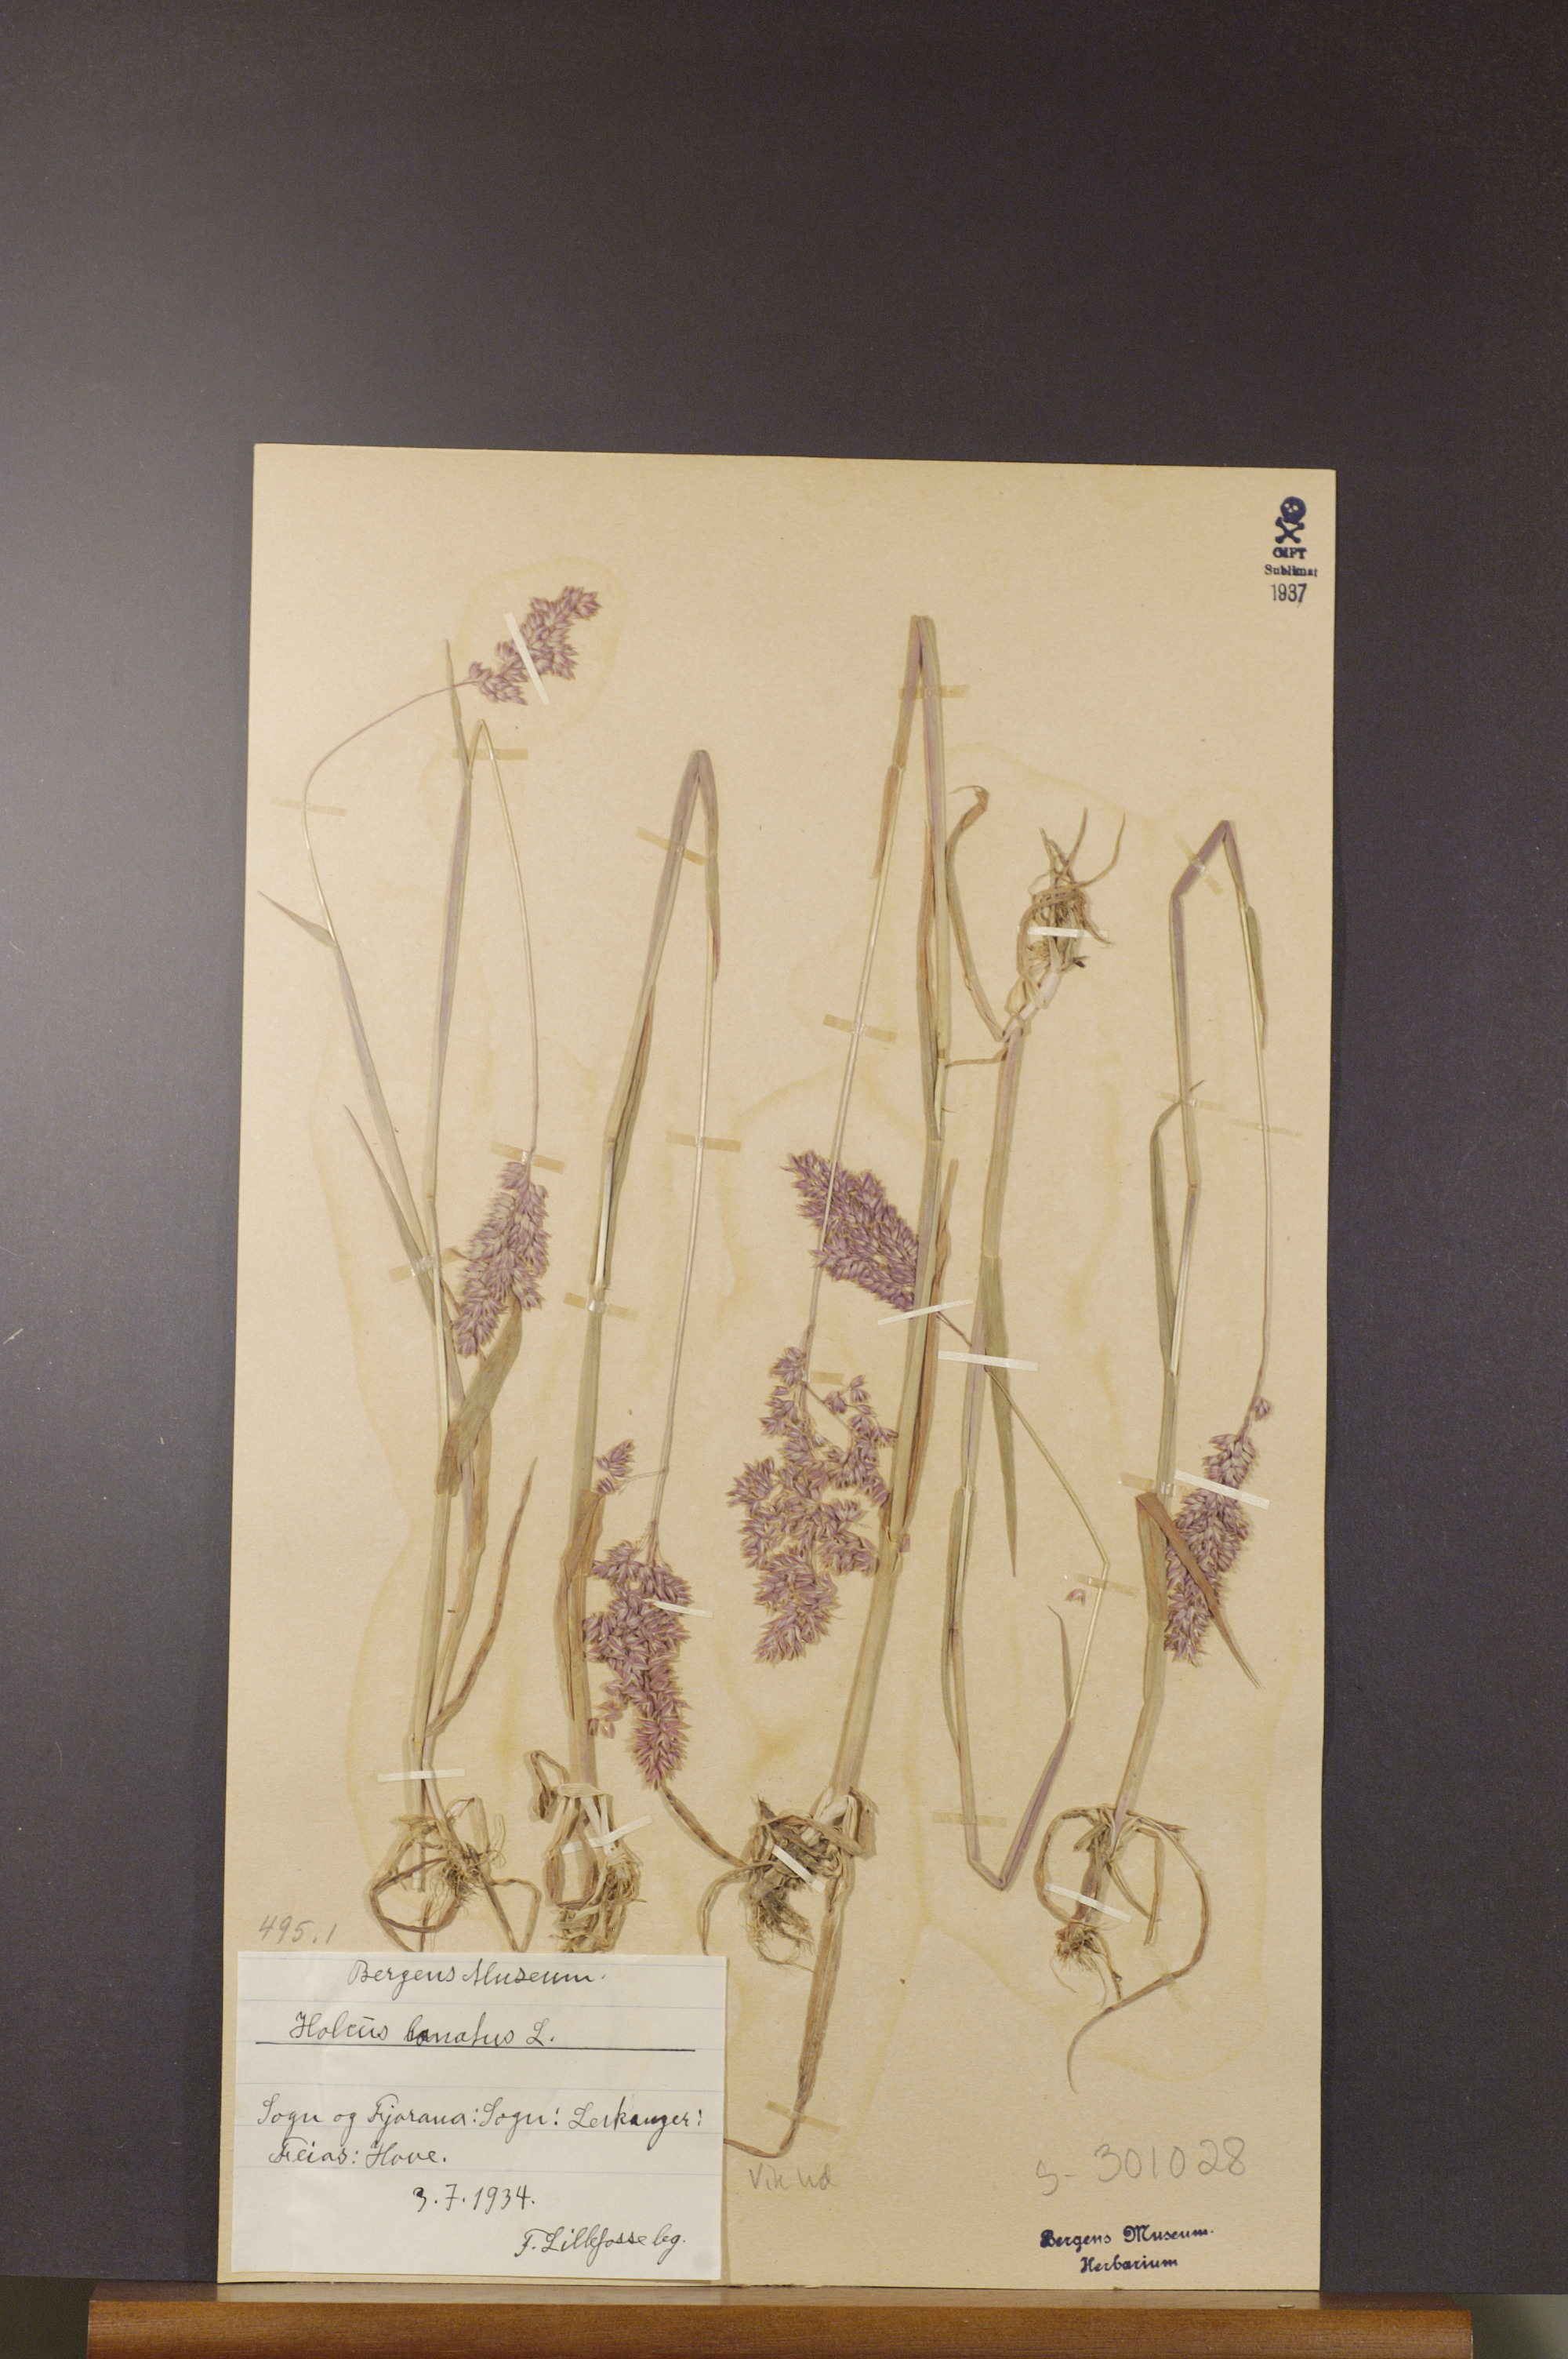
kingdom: Plantae
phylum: Tracheophyta
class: Liliopsida
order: Poales
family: Poaceae
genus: Holcus
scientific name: Holcus lanatus
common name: Yorkshire-fog
